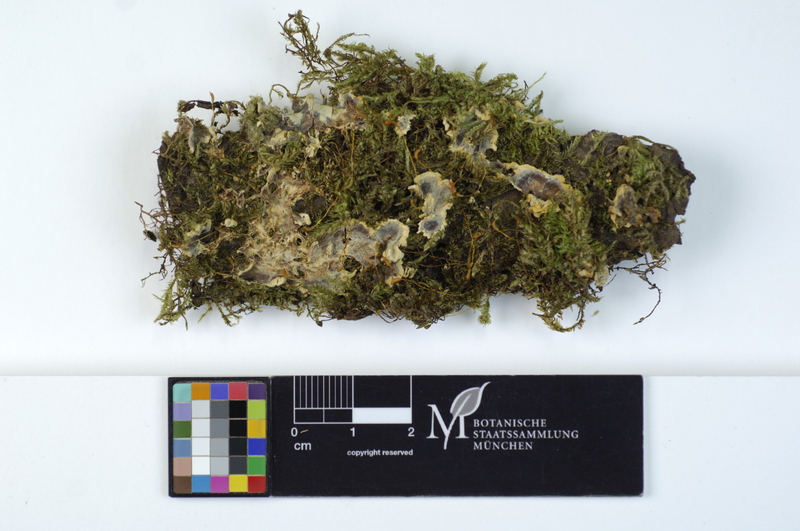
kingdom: Fungi
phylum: Basidiomycota
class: Agaricomycetes
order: Polyporales
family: Meruliaceae
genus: Physisporinus
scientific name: Physisporinus vitreus
